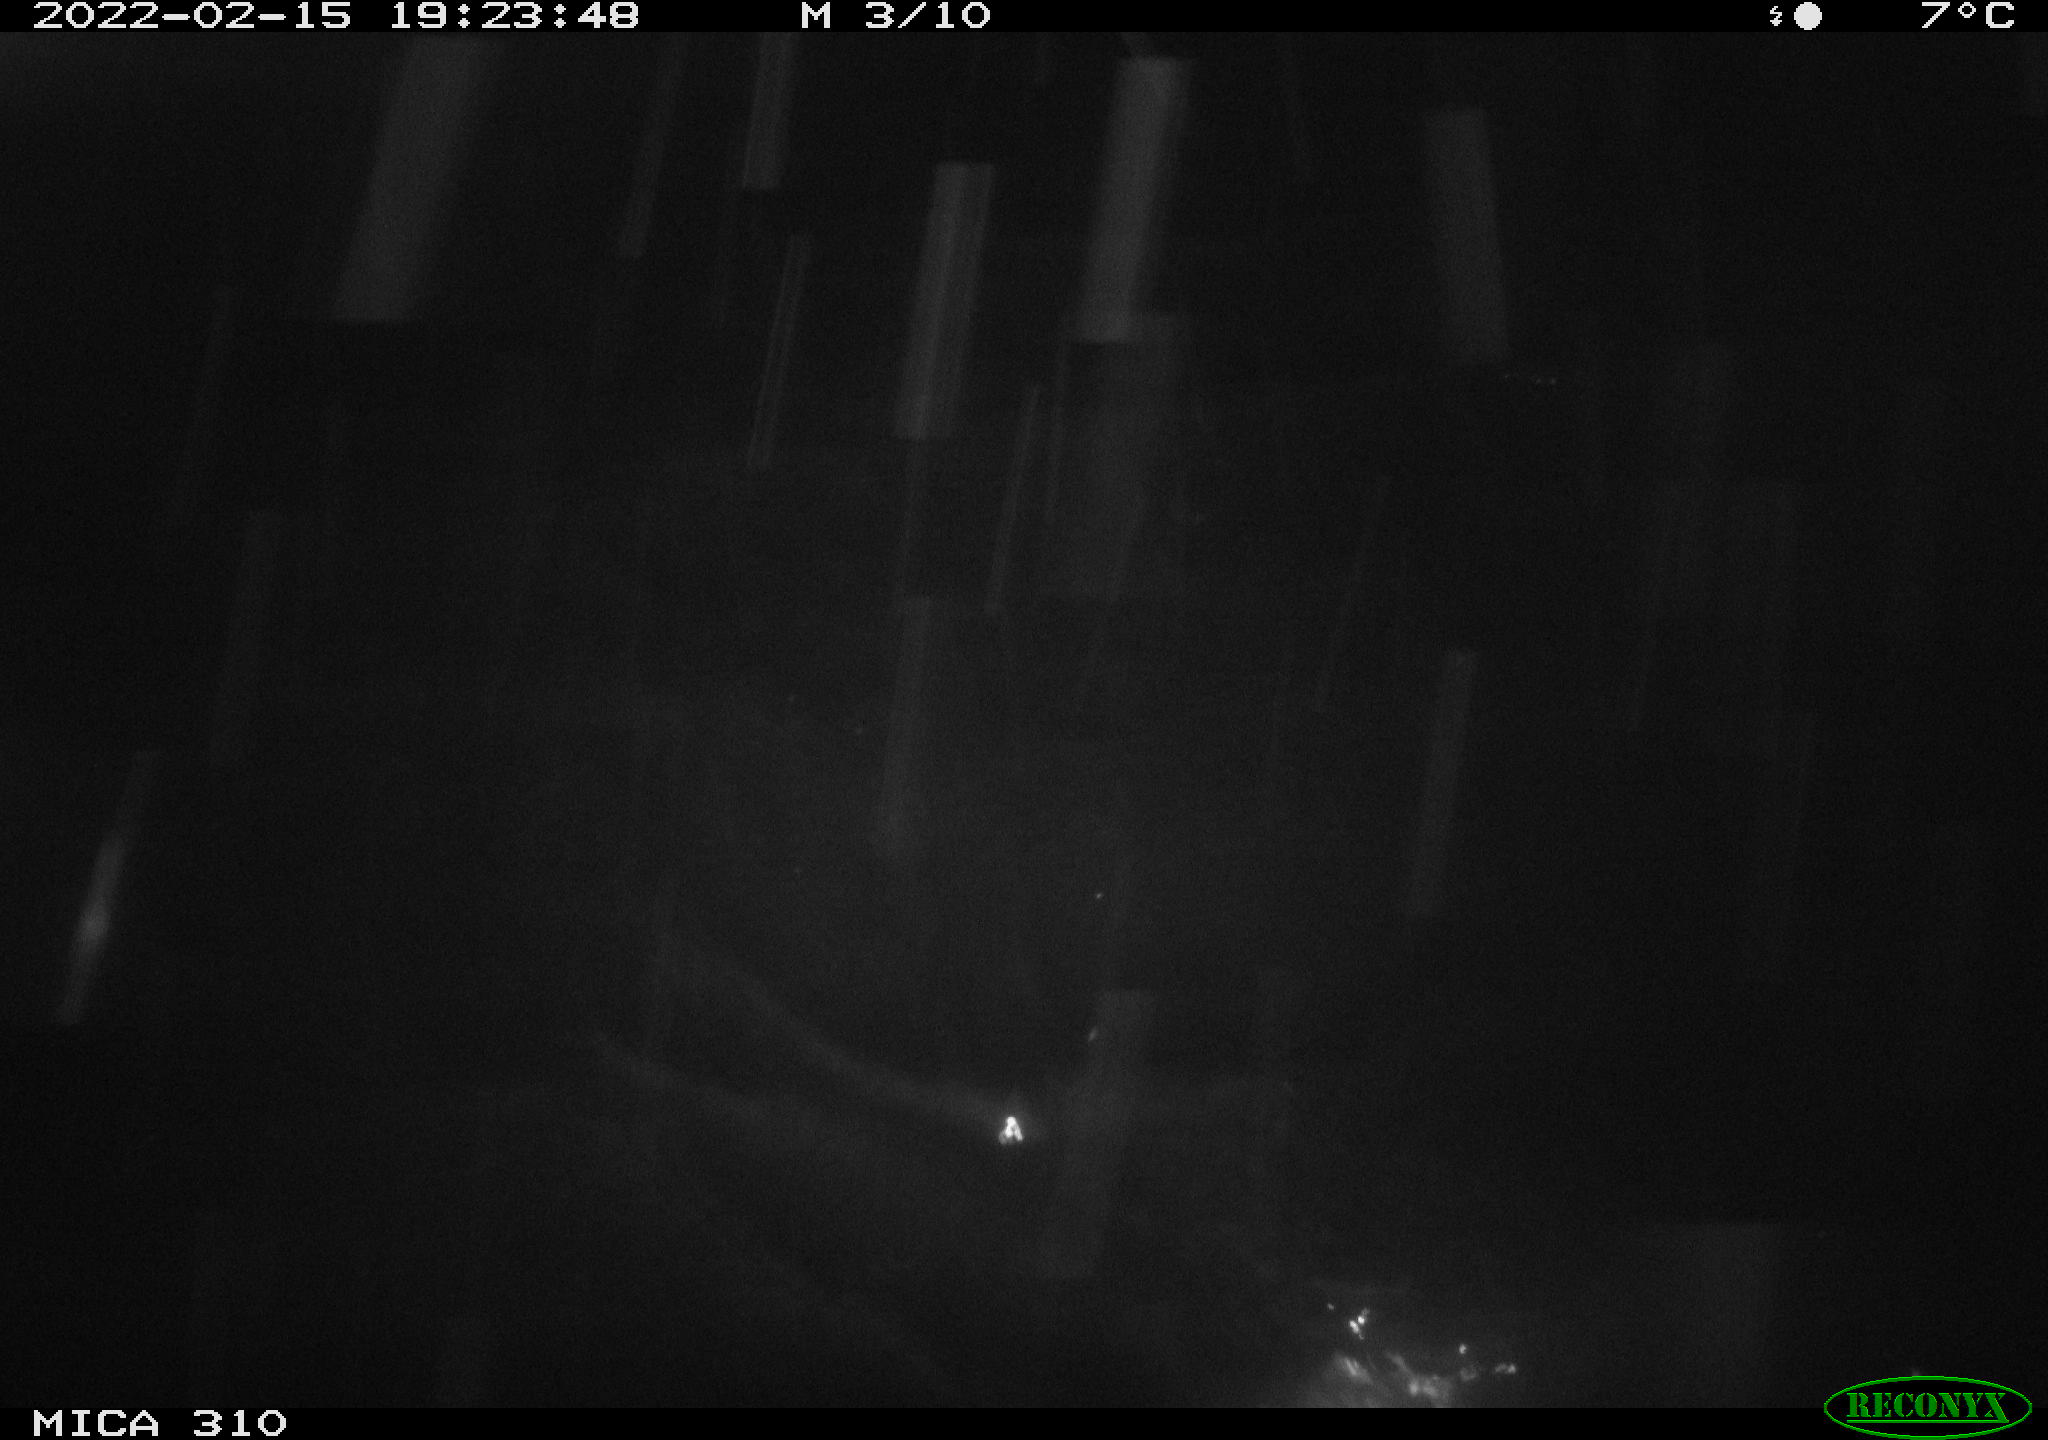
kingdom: Animalia
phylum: Chordata
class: Aves
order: Gruiformes
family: Rallidae
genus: Fulica
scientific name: Fulica atra
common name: Eurasian coot
